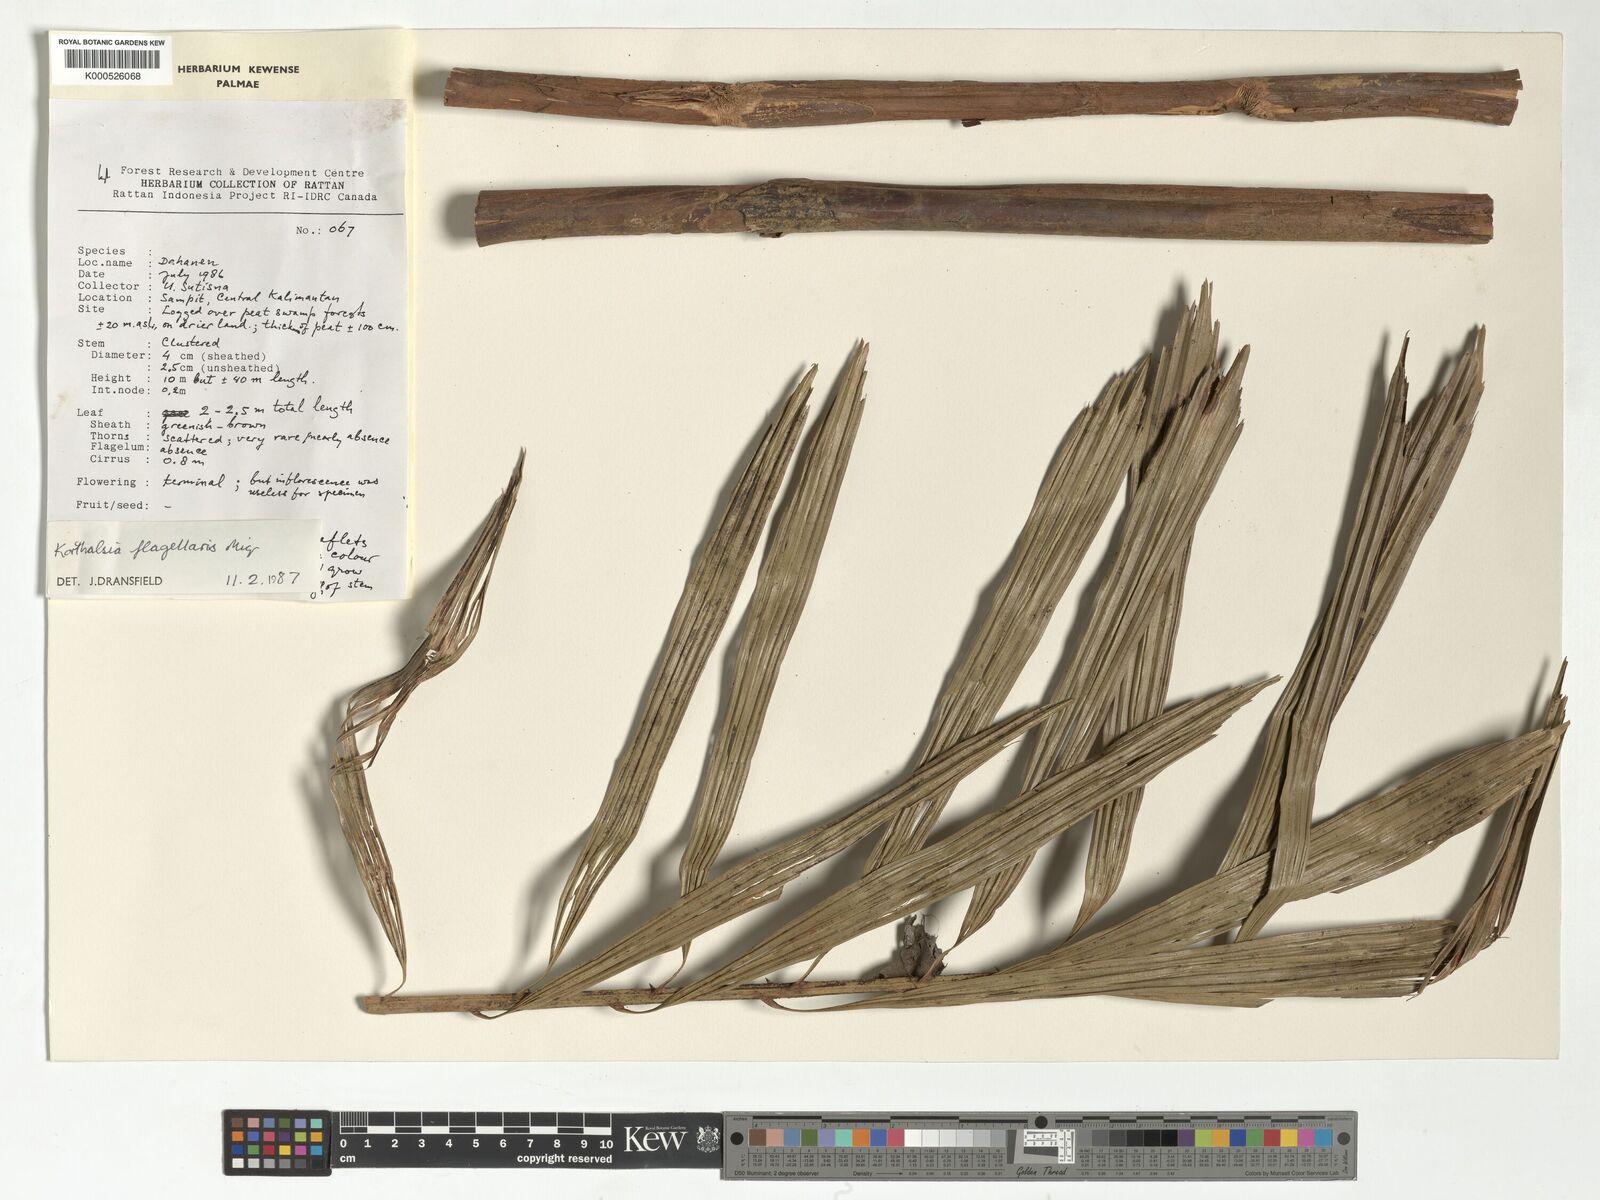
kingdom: Plantae
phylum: Tracheophyta
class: Liliopsida
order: Arecales
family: Arecaceae
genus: Korthalsia
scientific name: Korthalsia flagellaris
